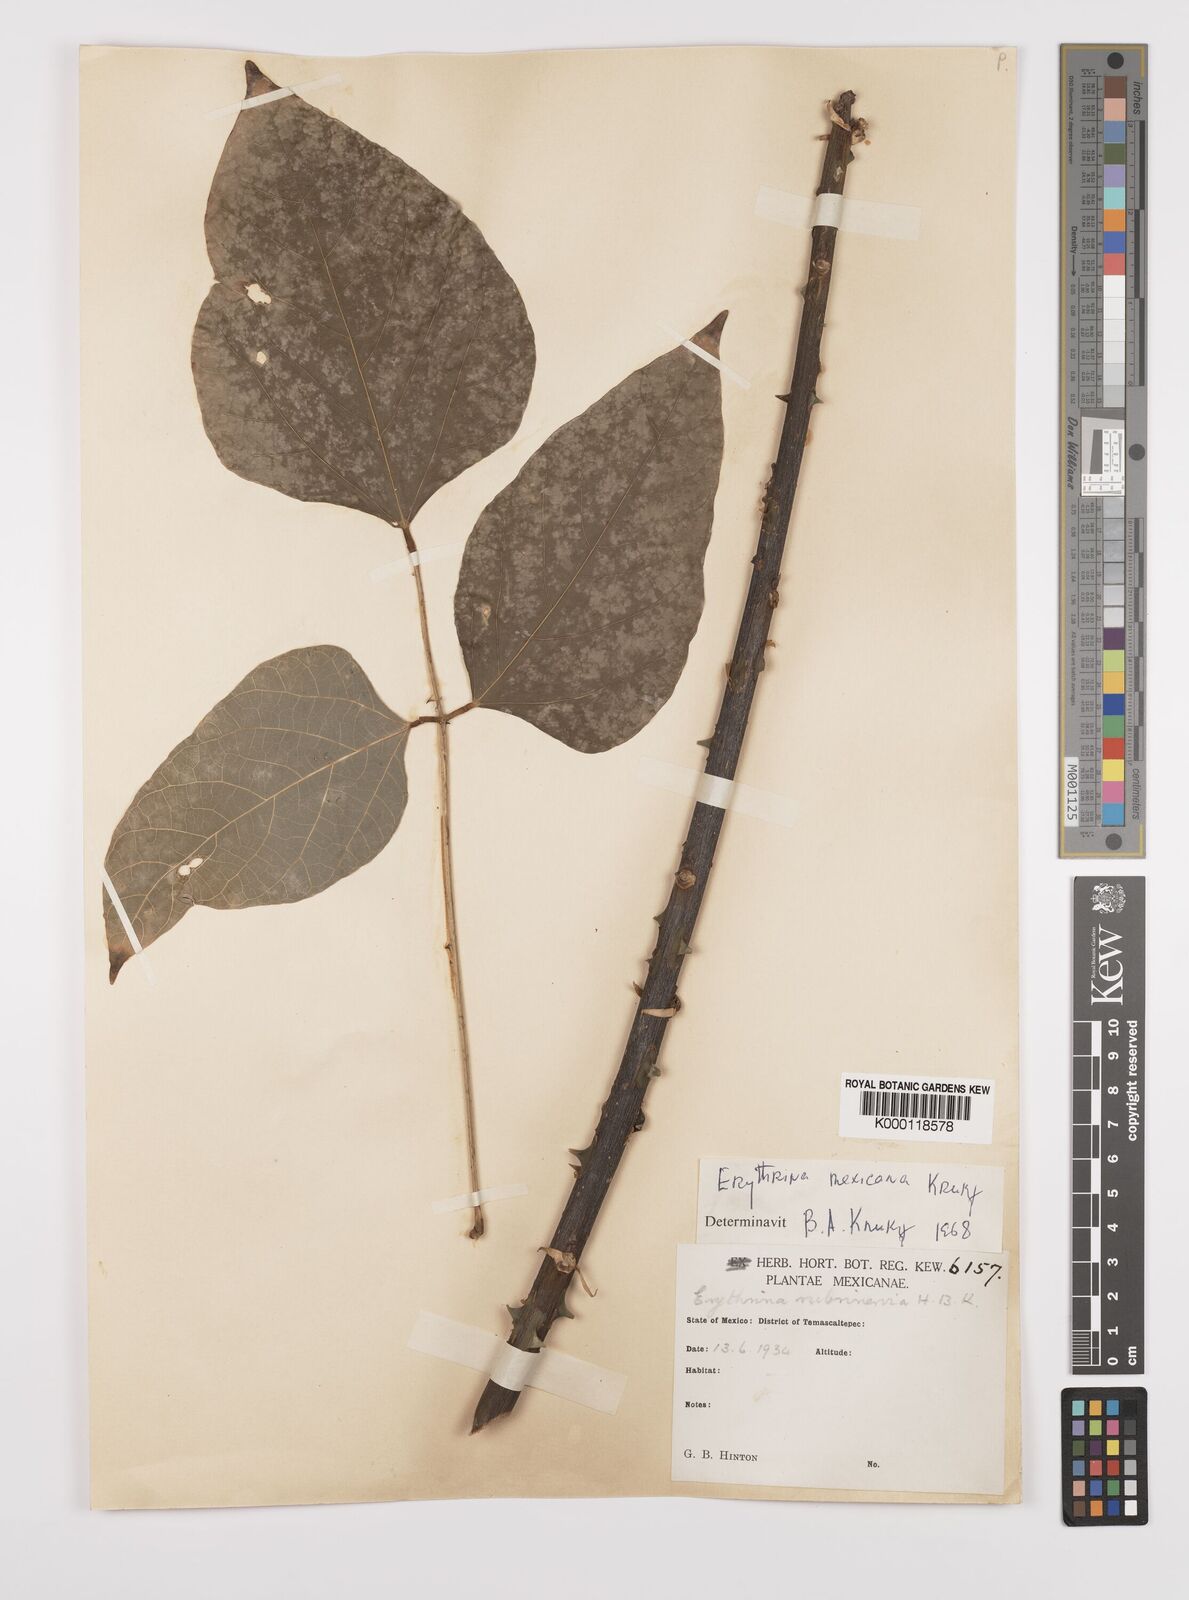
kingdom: Plantae
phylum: Tracheophyta
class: Magnoliopsida
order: Fabales
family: Fabaceae
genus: Erythrina
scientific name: Erythrina mexicana
